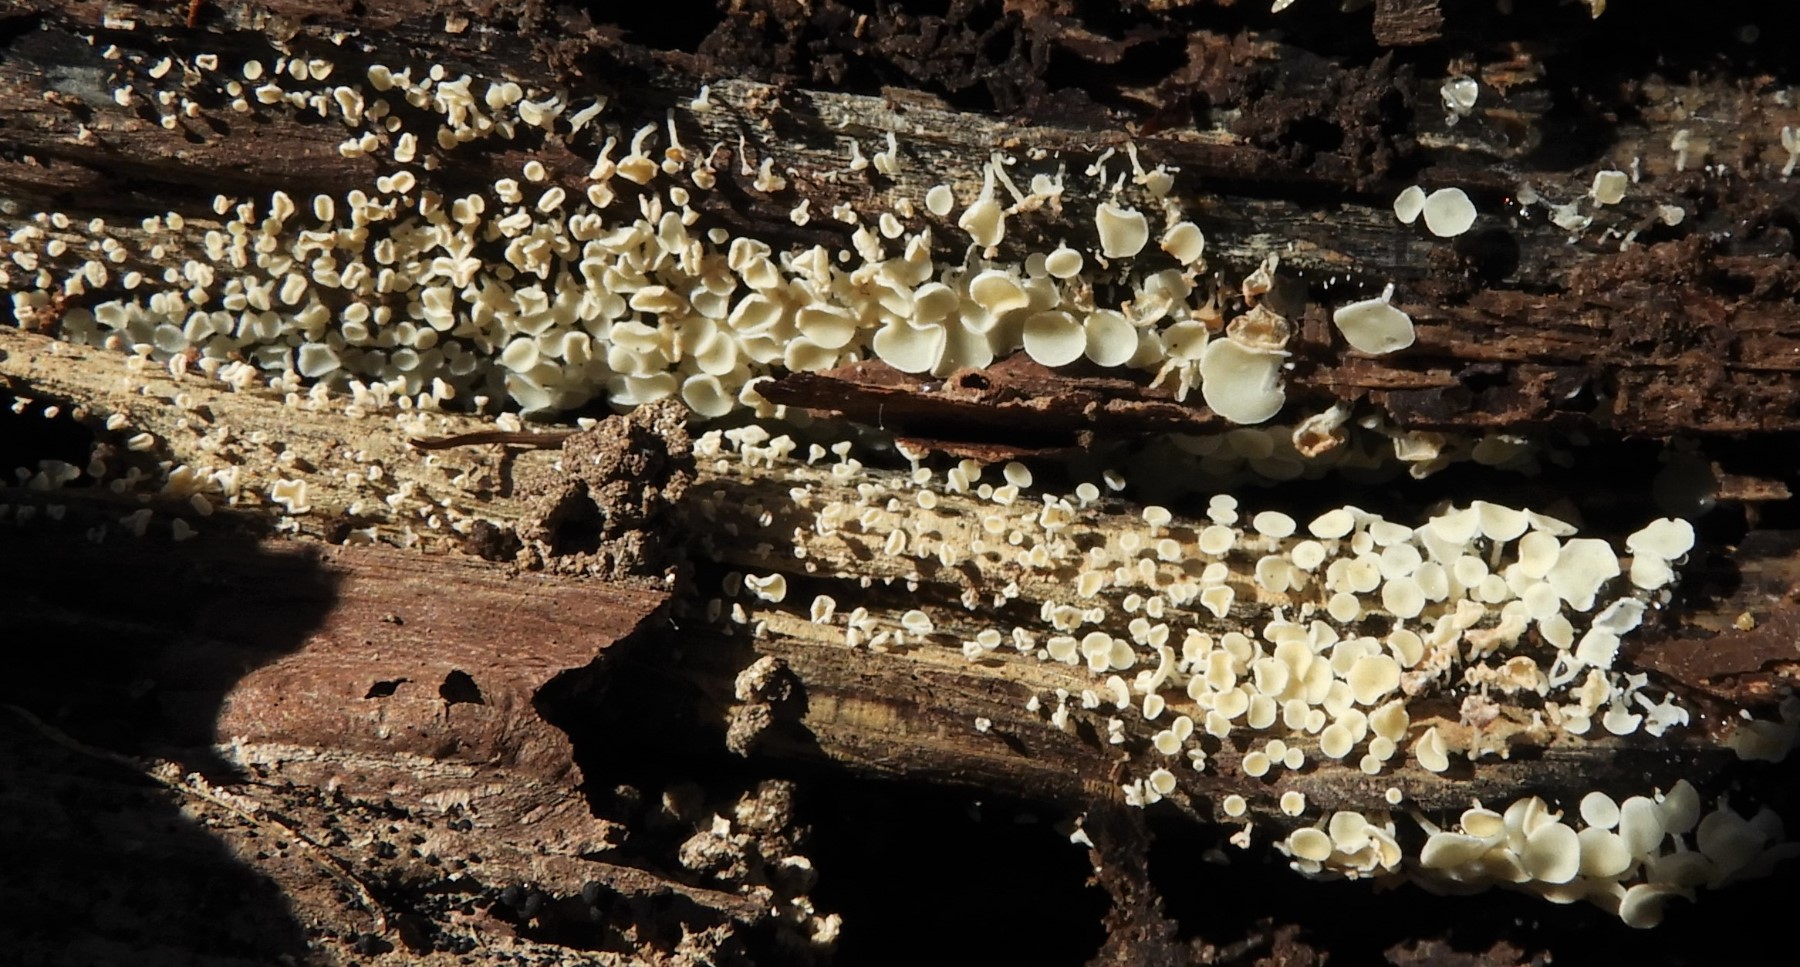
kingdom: Fungi
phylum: Ascomycota
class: Leotiomycetes
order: Helotiales
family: Lachnaceae
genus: Lachnum
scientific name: Lachnum
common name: frynseskive
